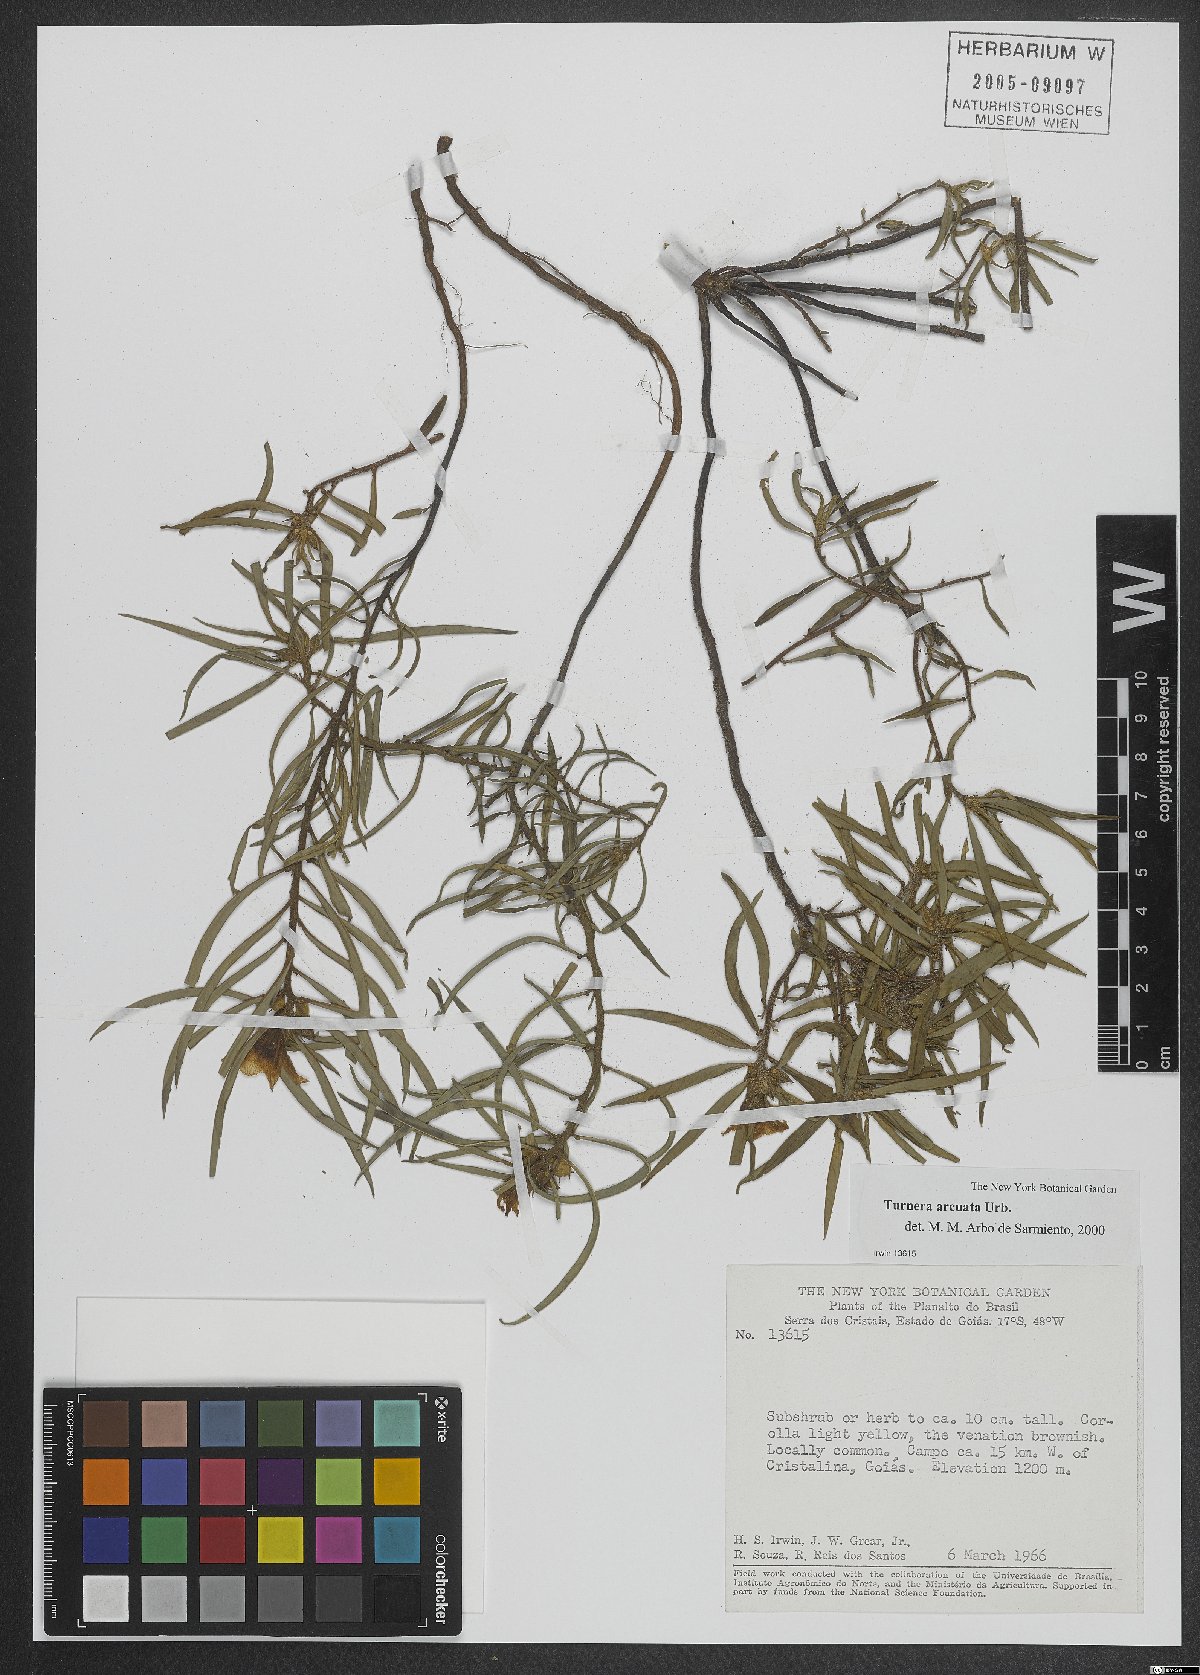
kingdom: Plantae
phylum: Tracheophyta
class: Magnoliopsida
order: Malpighiales
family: Turneraceae
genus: Turnera
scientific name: Turnera arcuata
